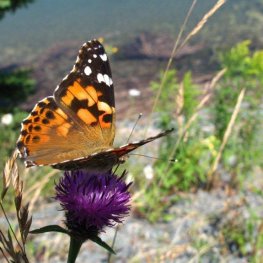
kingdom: Animalia
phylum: Arthropoda
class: Insecta
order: Lepidoptera
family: Nymphalidae
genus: Vanessa
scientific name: Vanessa cardui
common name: Painted Lady
